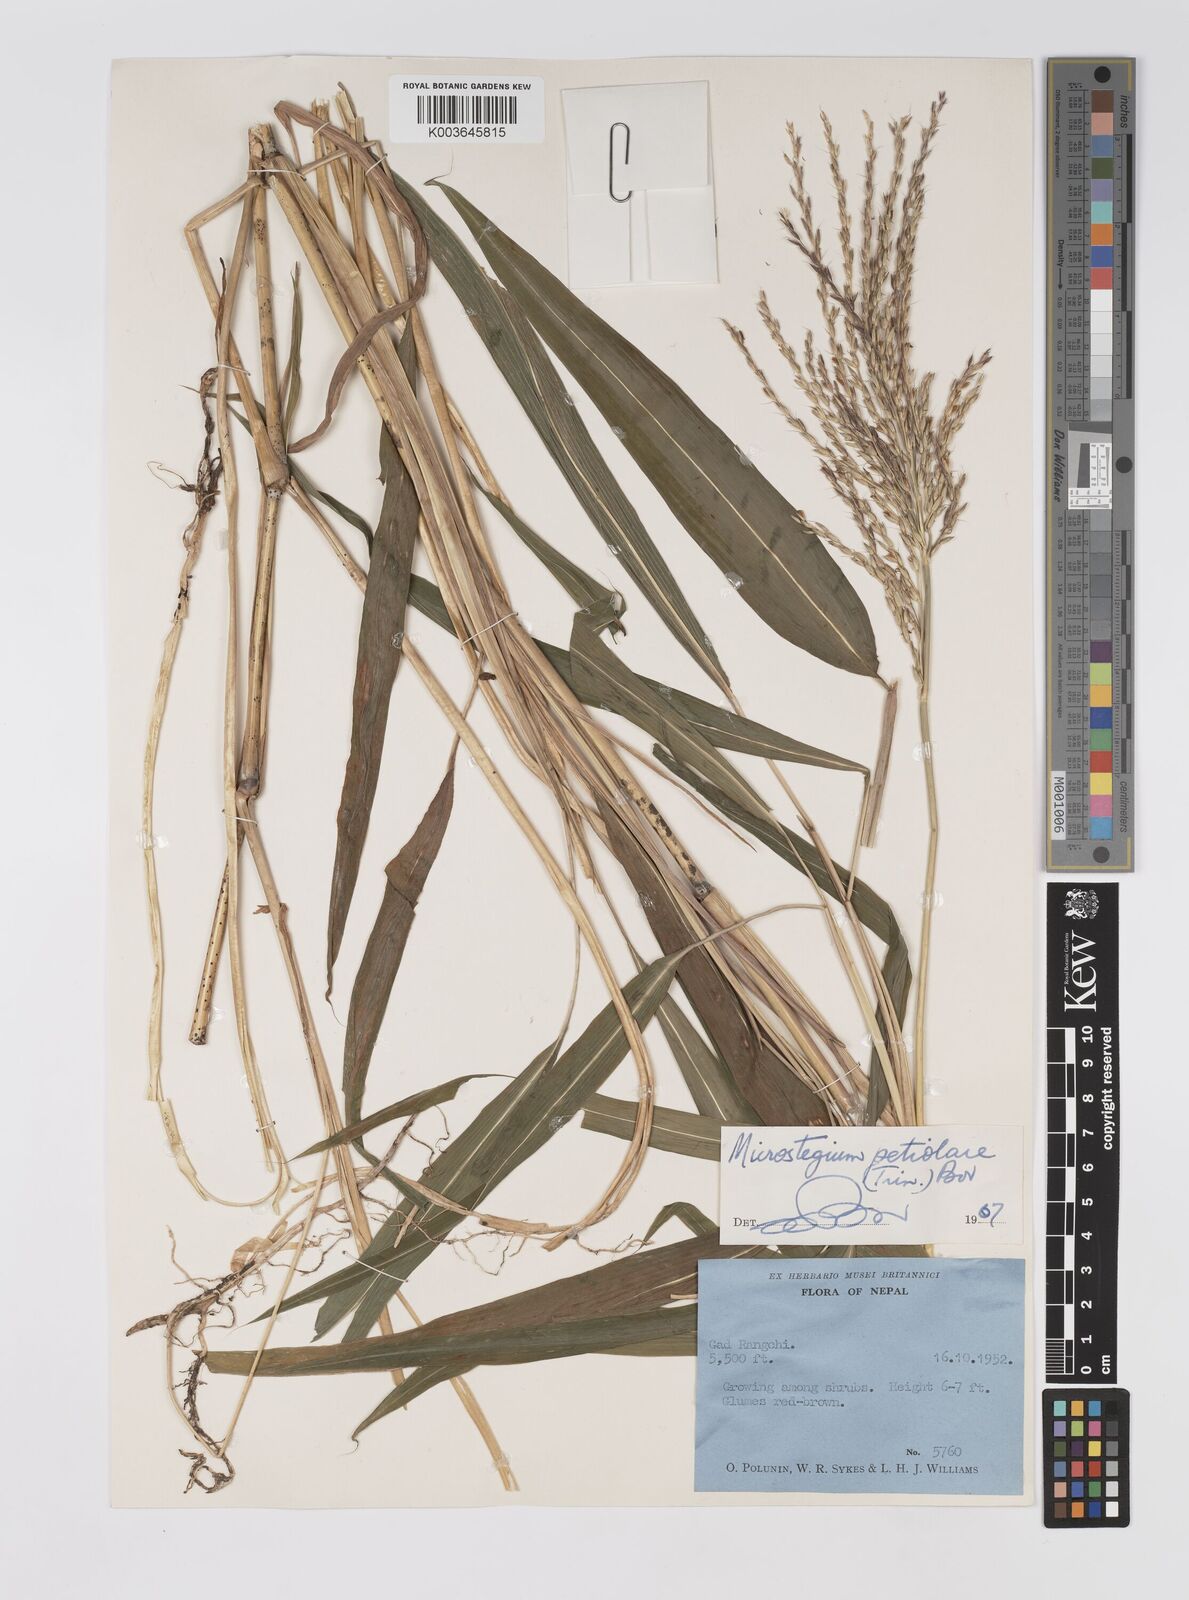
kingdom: Plantae
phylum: Tracheophyta
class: Liliopsida
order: Poales
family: Poaceae
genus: Microstegium
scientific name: Microstegium petiolare
